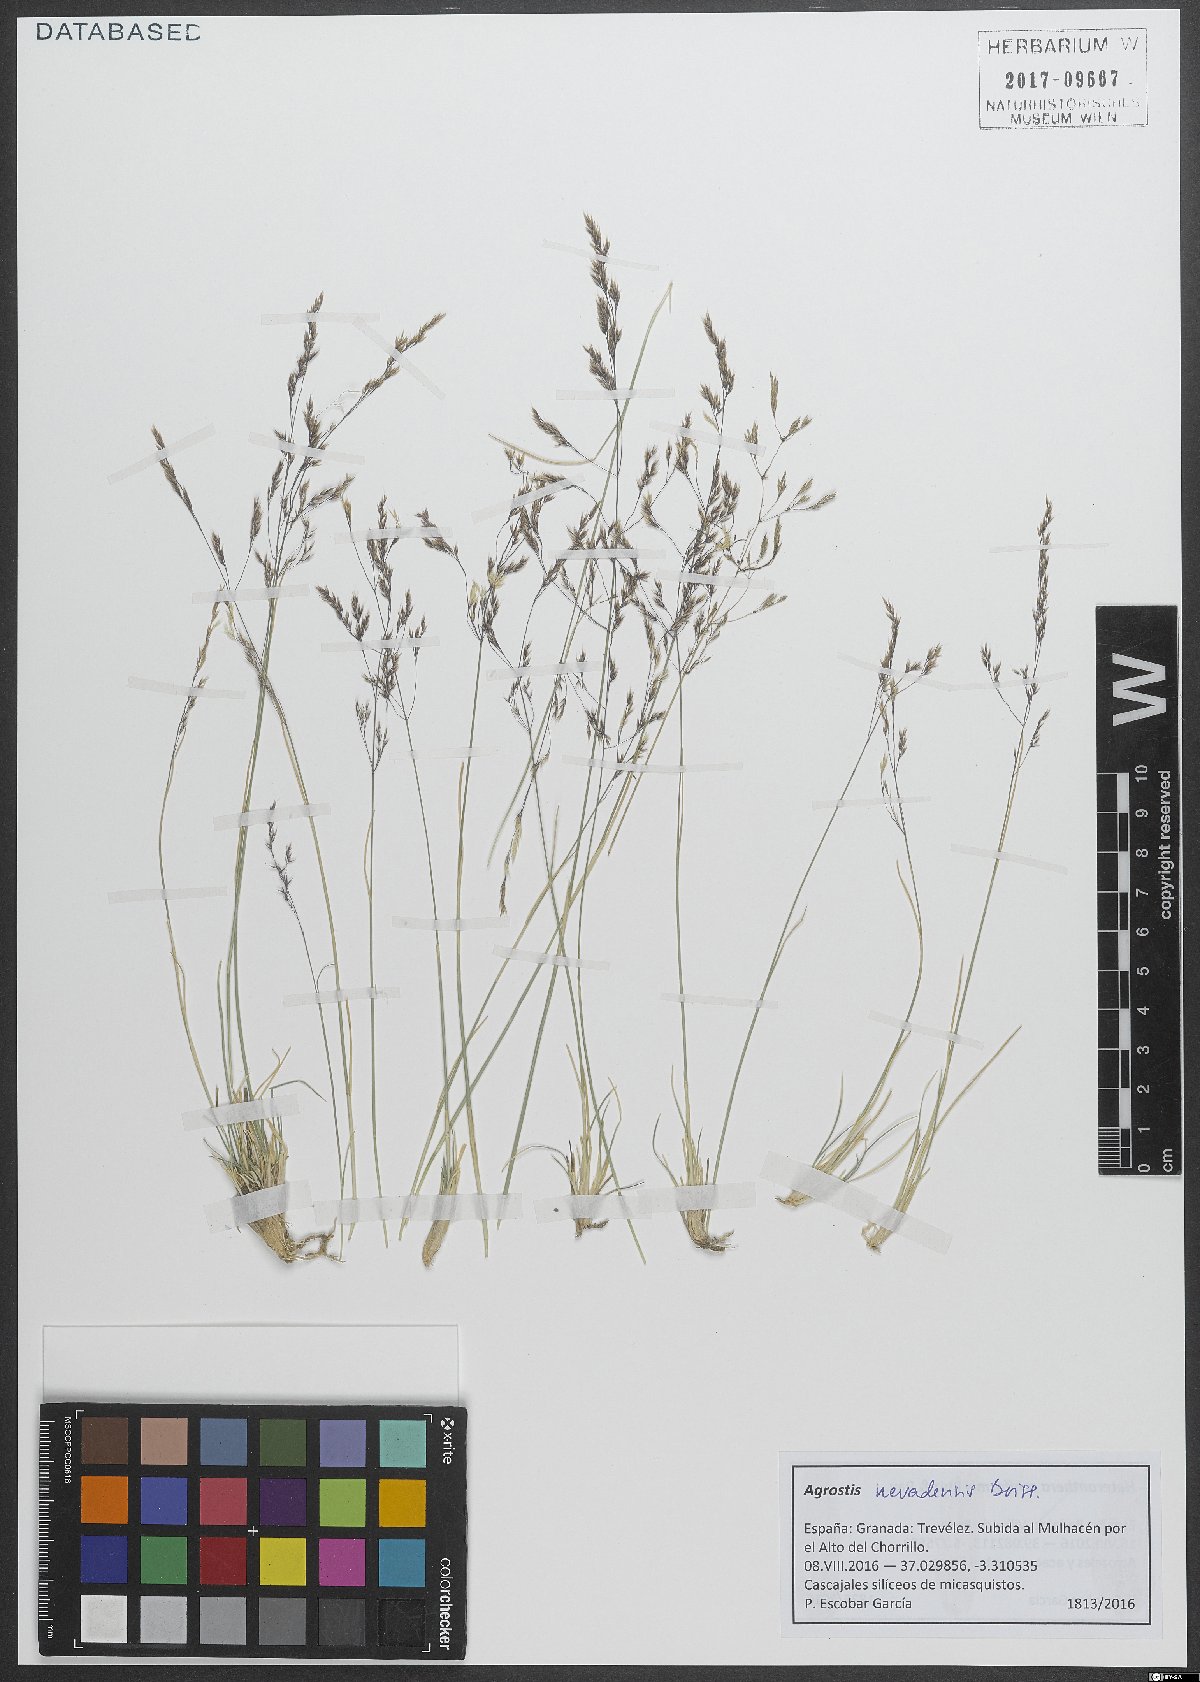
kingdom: Plantae
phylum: Tracheophyta
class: Liliopsida
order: Poales
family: Poaceae
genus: Agrostis
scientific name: Agrostis nevadensis
